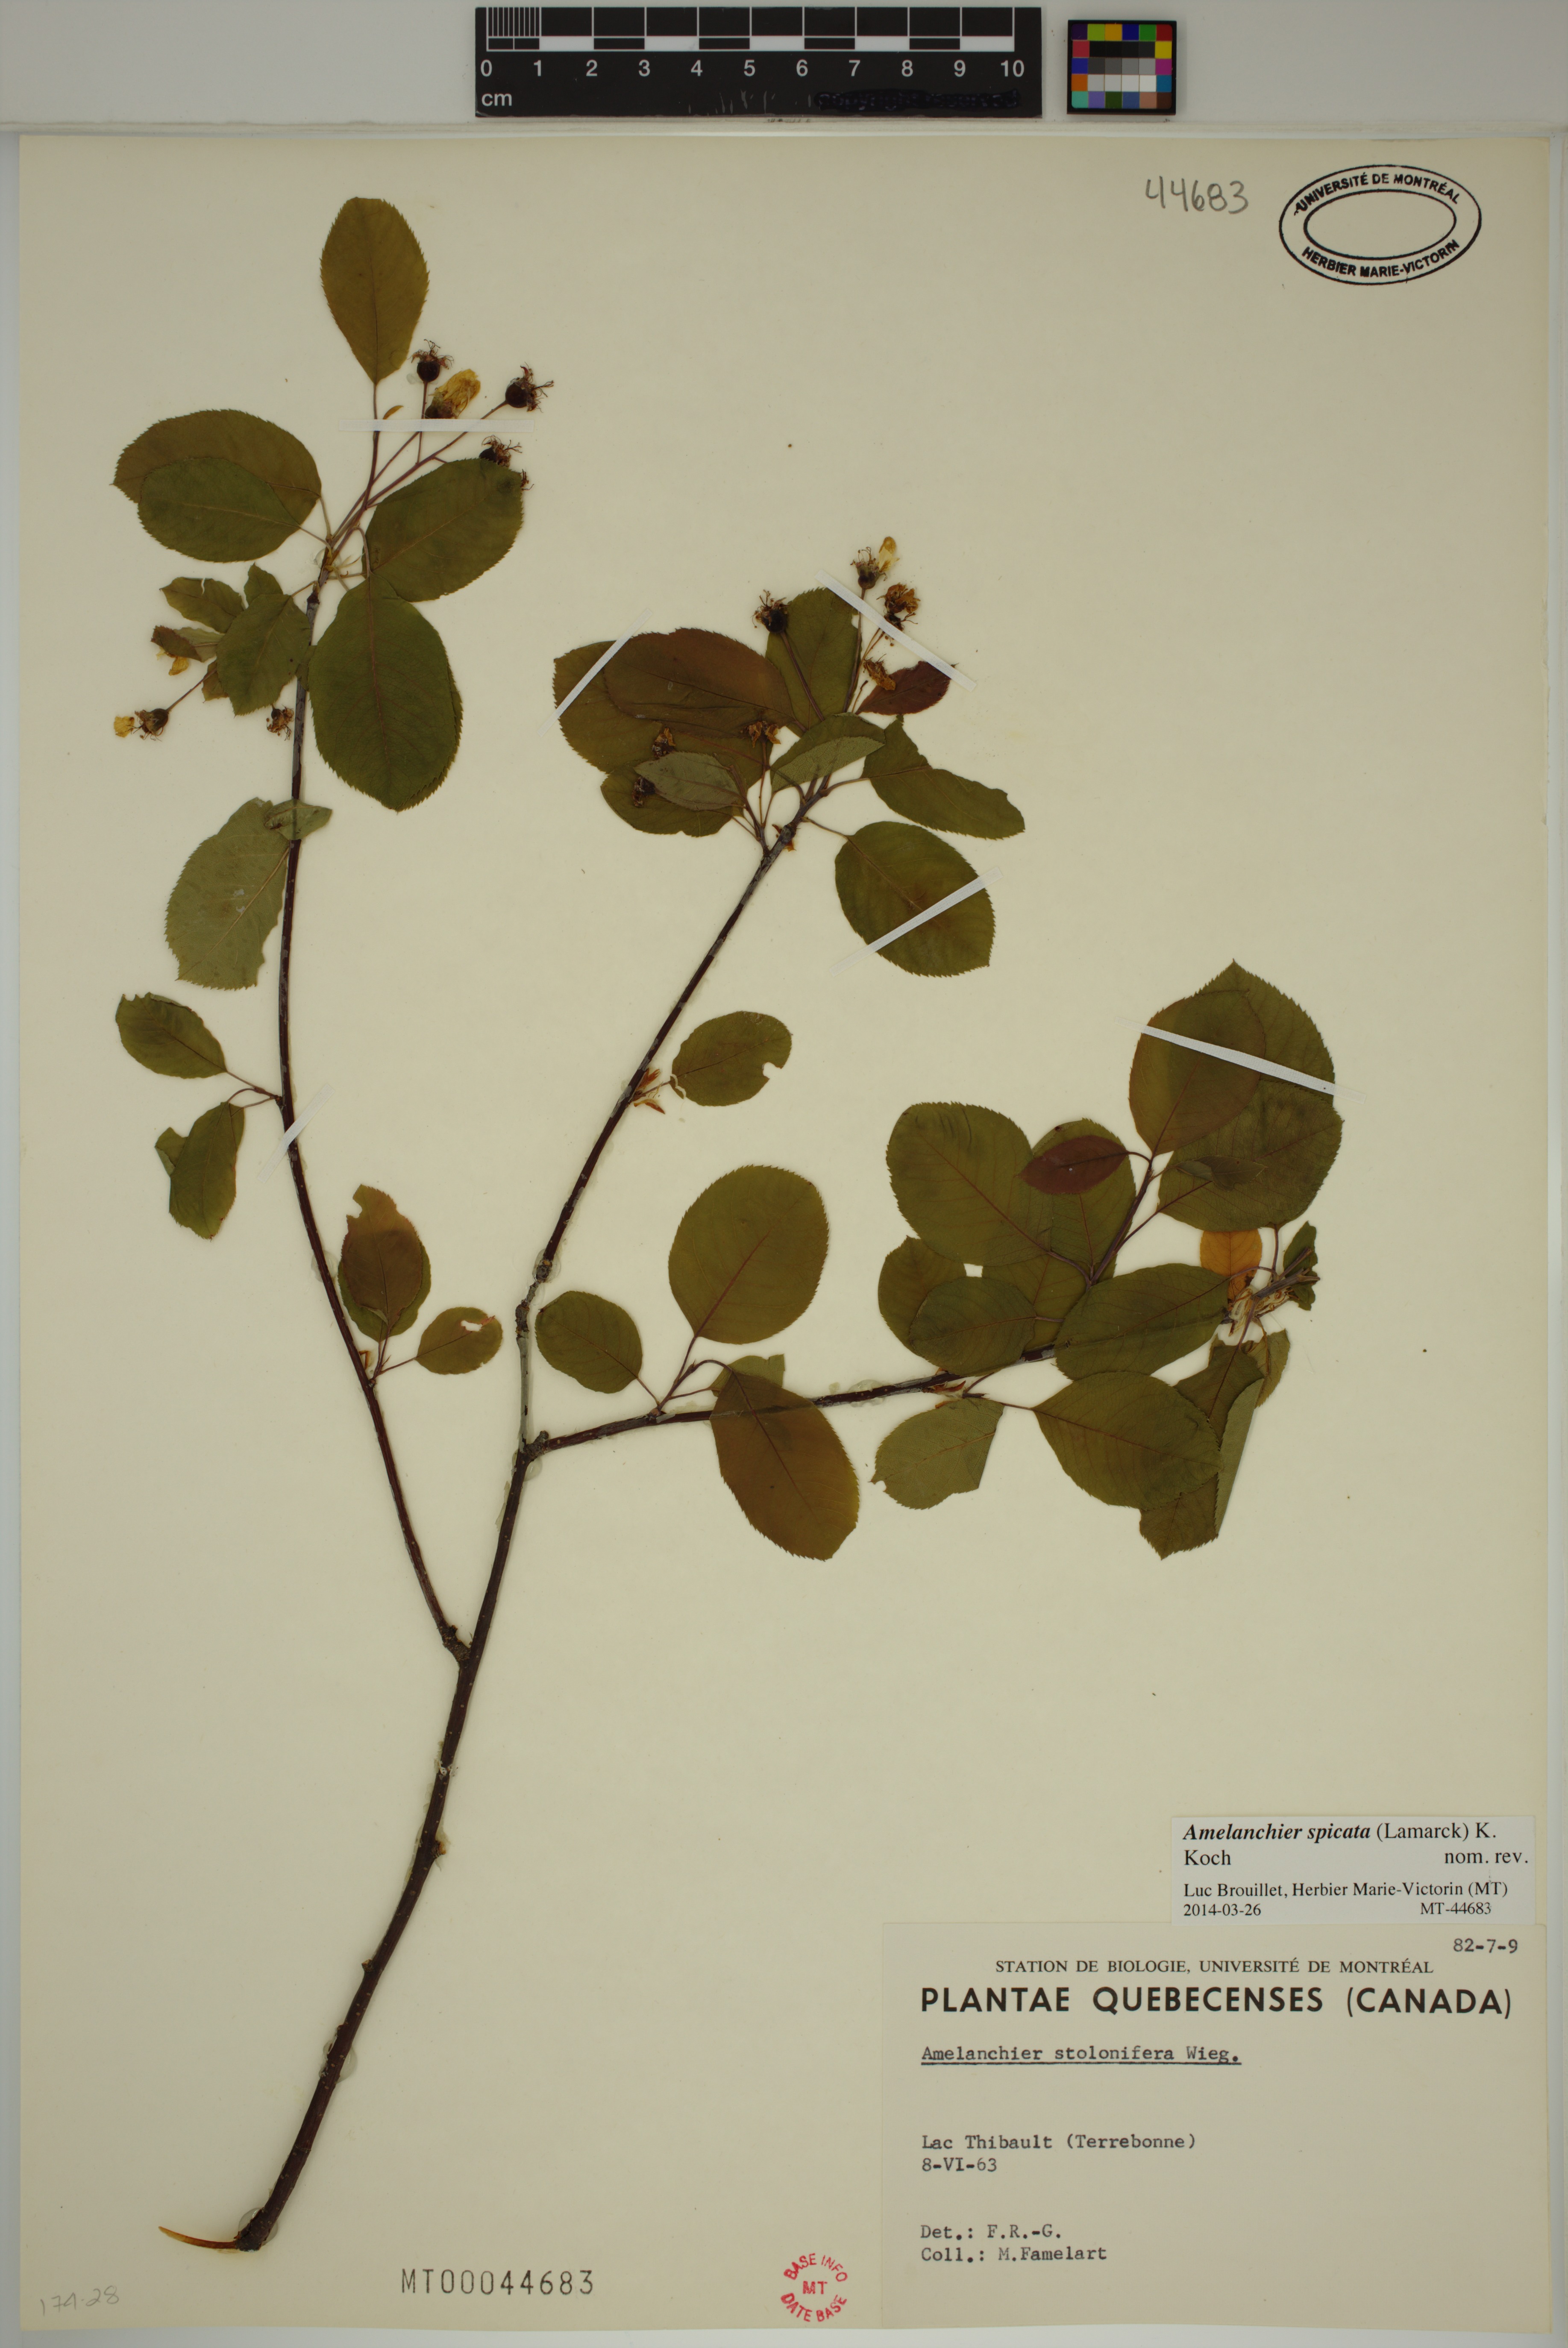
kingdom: Plantae
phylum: Tracheophyta
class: Magnoliopsida
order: Rosales
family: Rosaceae
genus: Amelanchier
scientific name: Amelanchier humilis
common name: Low juneberry
